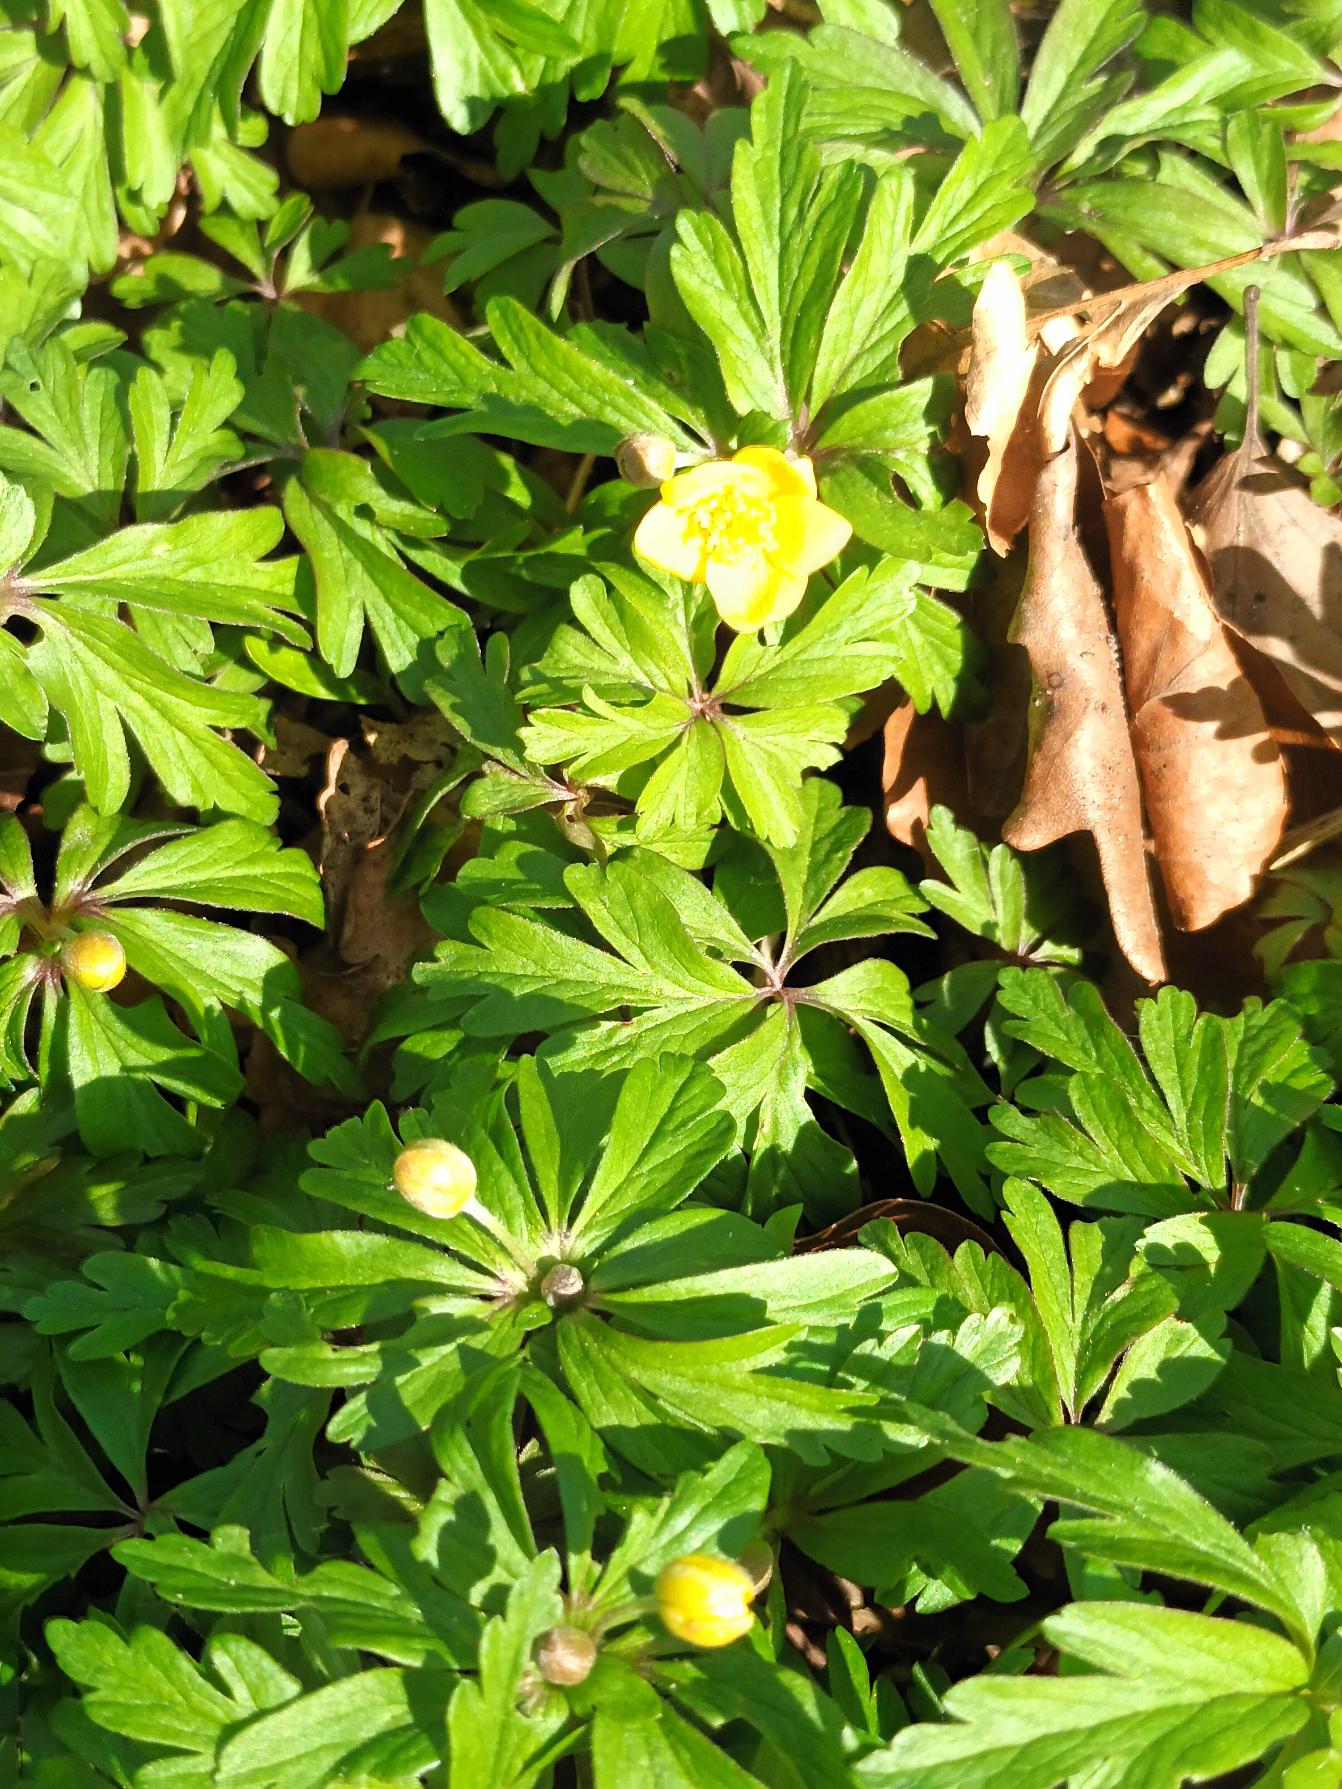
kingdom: Plantae
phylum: Tracheophyta
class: Magnoliopsida
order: Ranunculales
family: Ranunculaceae
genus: Anemone
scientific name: Anemone ranunculoides
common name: Gul anemone
